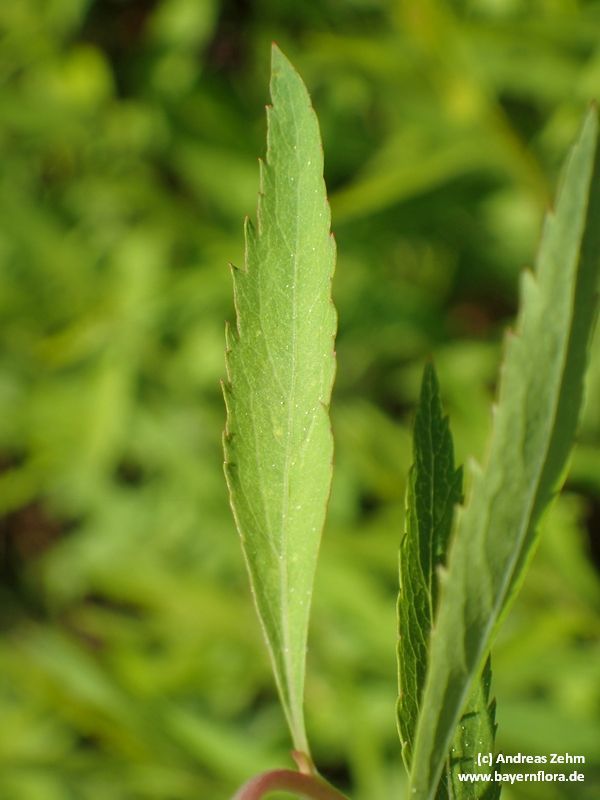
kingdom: Plantae
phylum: Tracheophyta
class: Magnoliopsida
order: Rosales
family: Rosaceae
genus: Spiraea
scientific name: Spiraea arguta
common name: Garland spiraea
